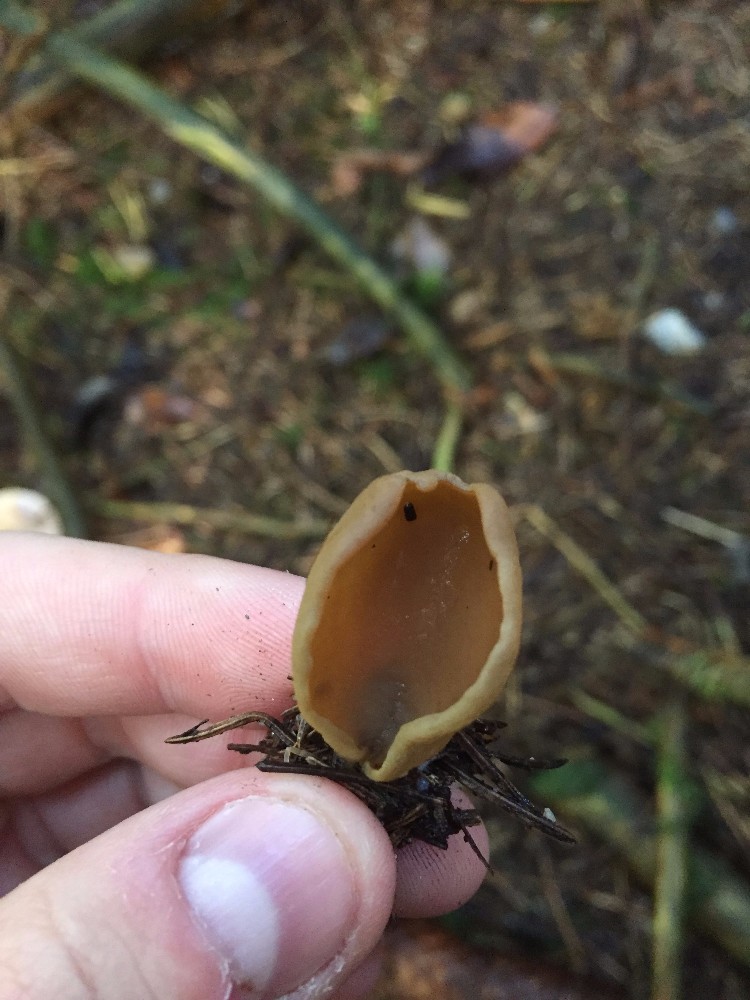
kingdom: Fungi
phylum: Ascomycota
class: Pezizomycetes
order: Pezizales
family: Otideaceae
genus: Otidea
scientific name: Otidea
